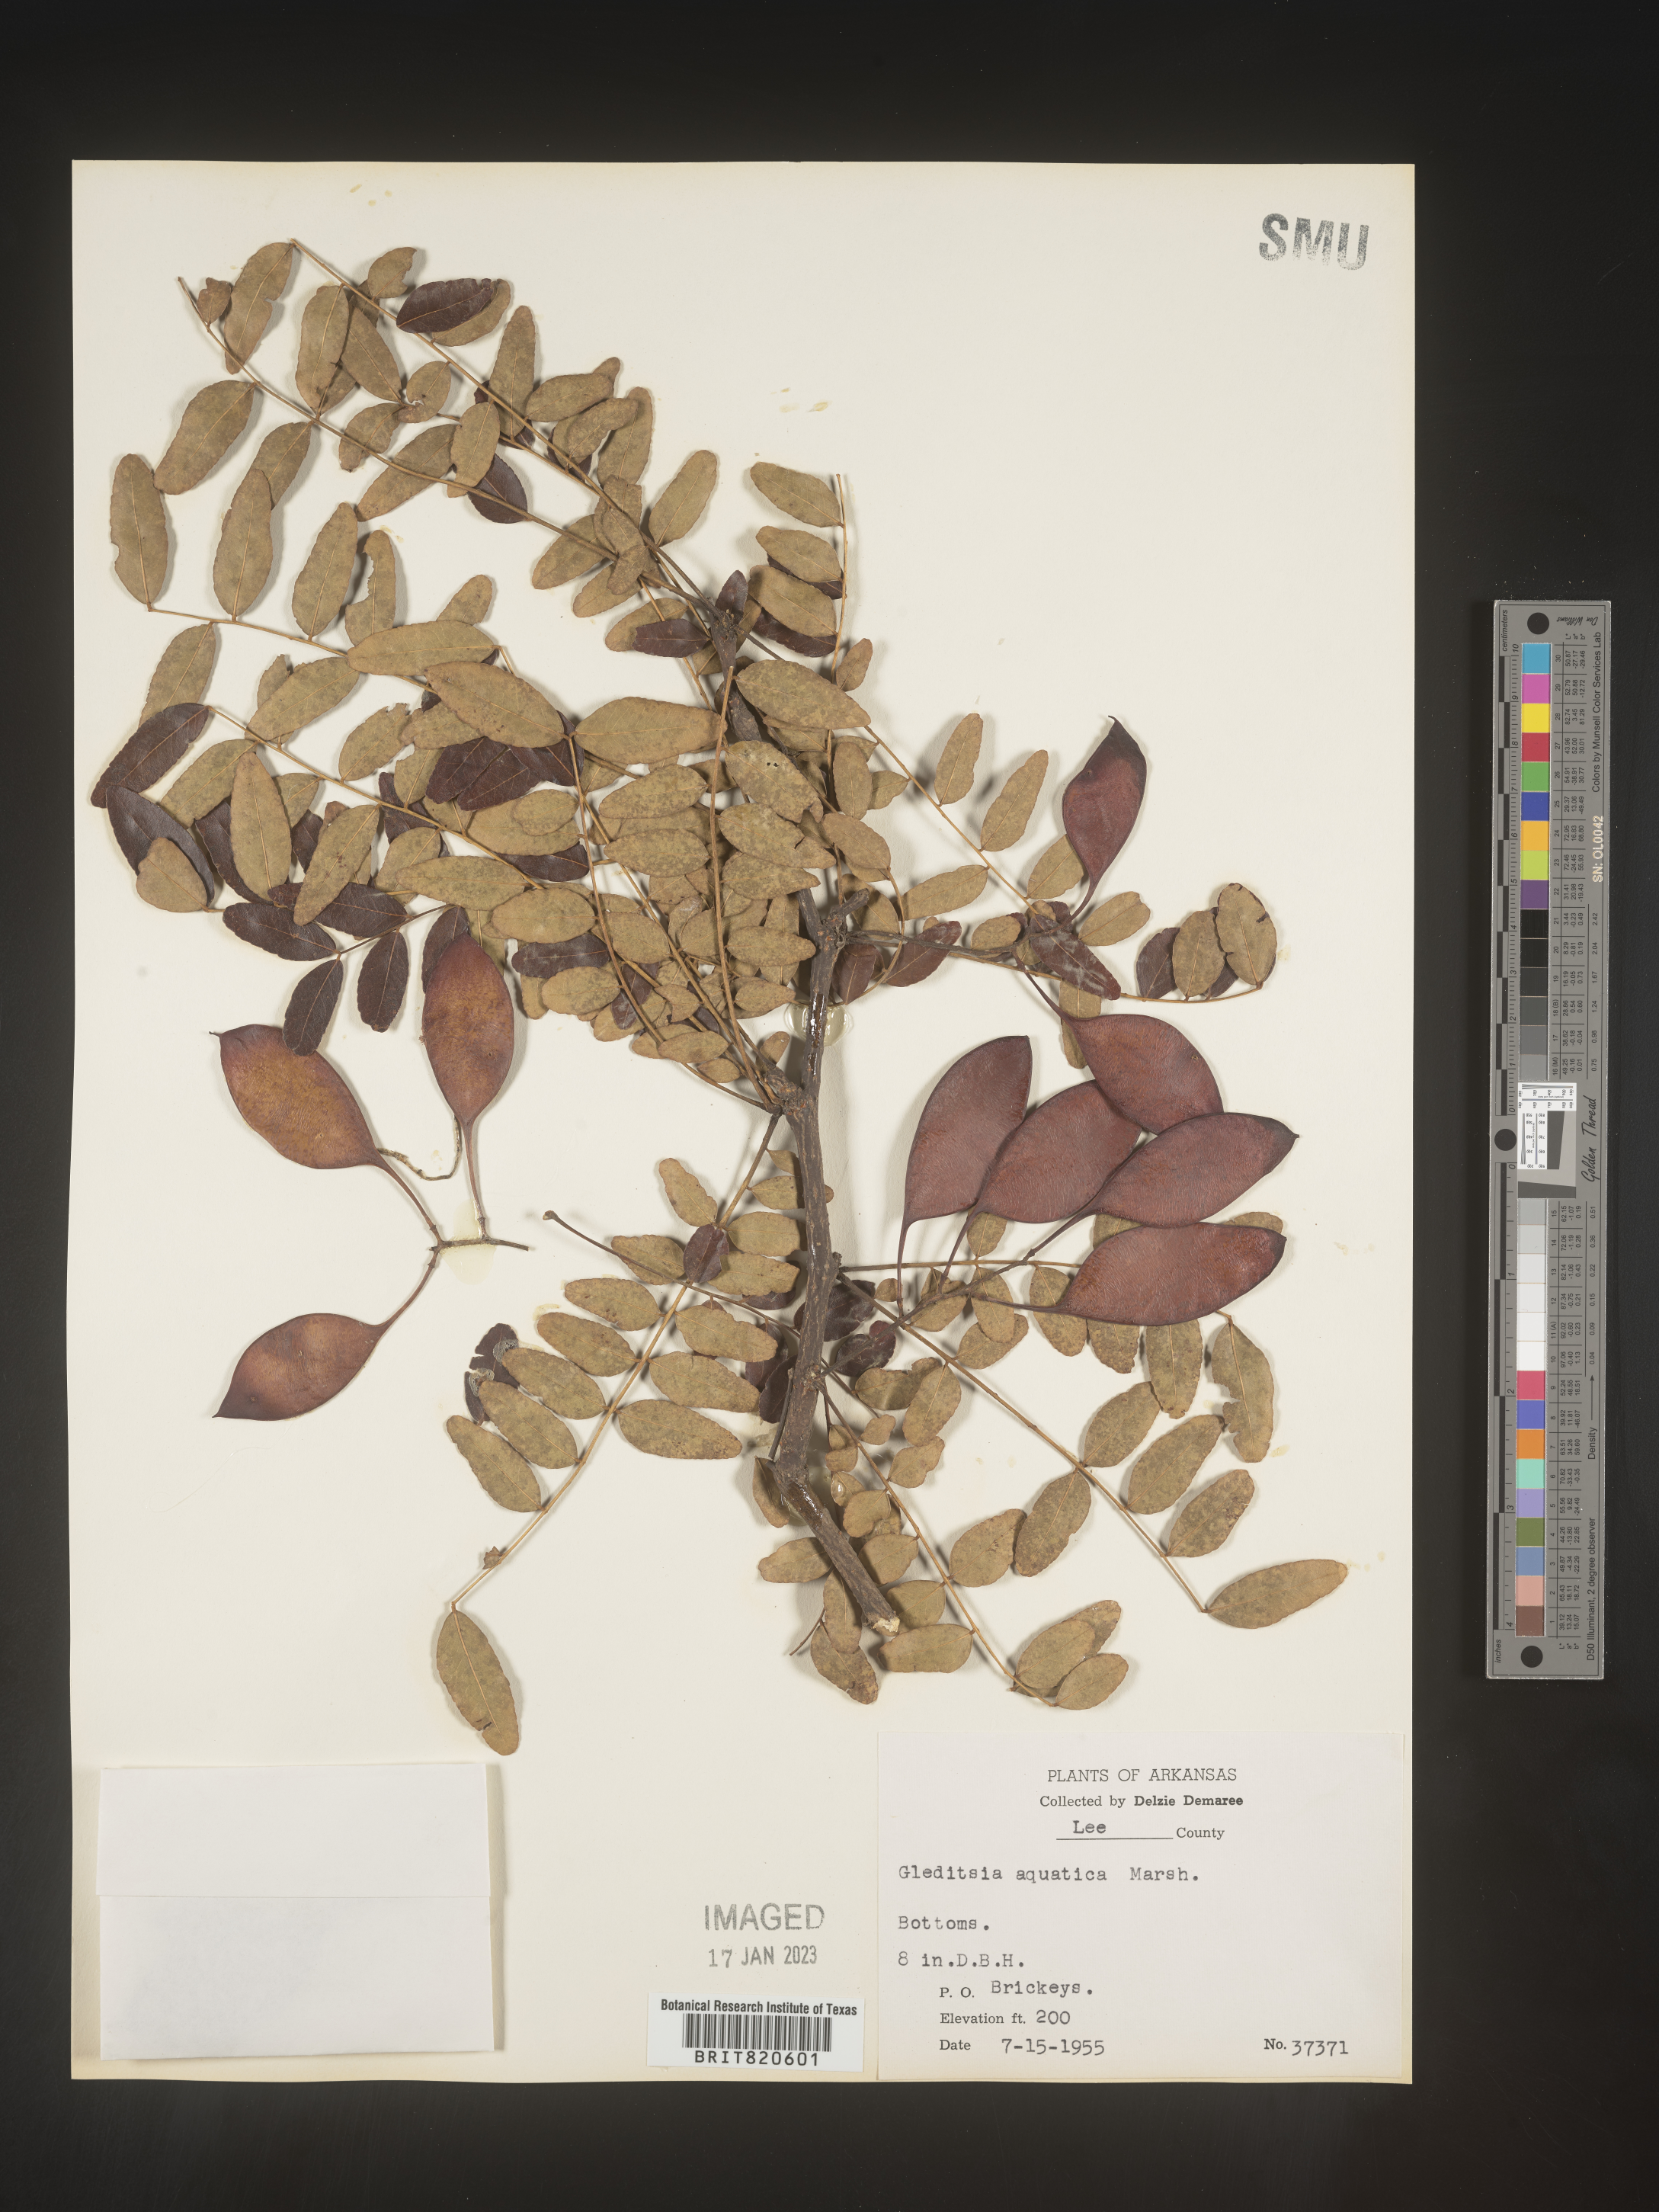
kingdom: Plantae
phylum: Tracheophyta
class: Magnoliopsida
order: Fabales
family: Fabaceae
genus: Gleditsia
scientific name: Gleditsia aquatica
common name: Swamp-locust
